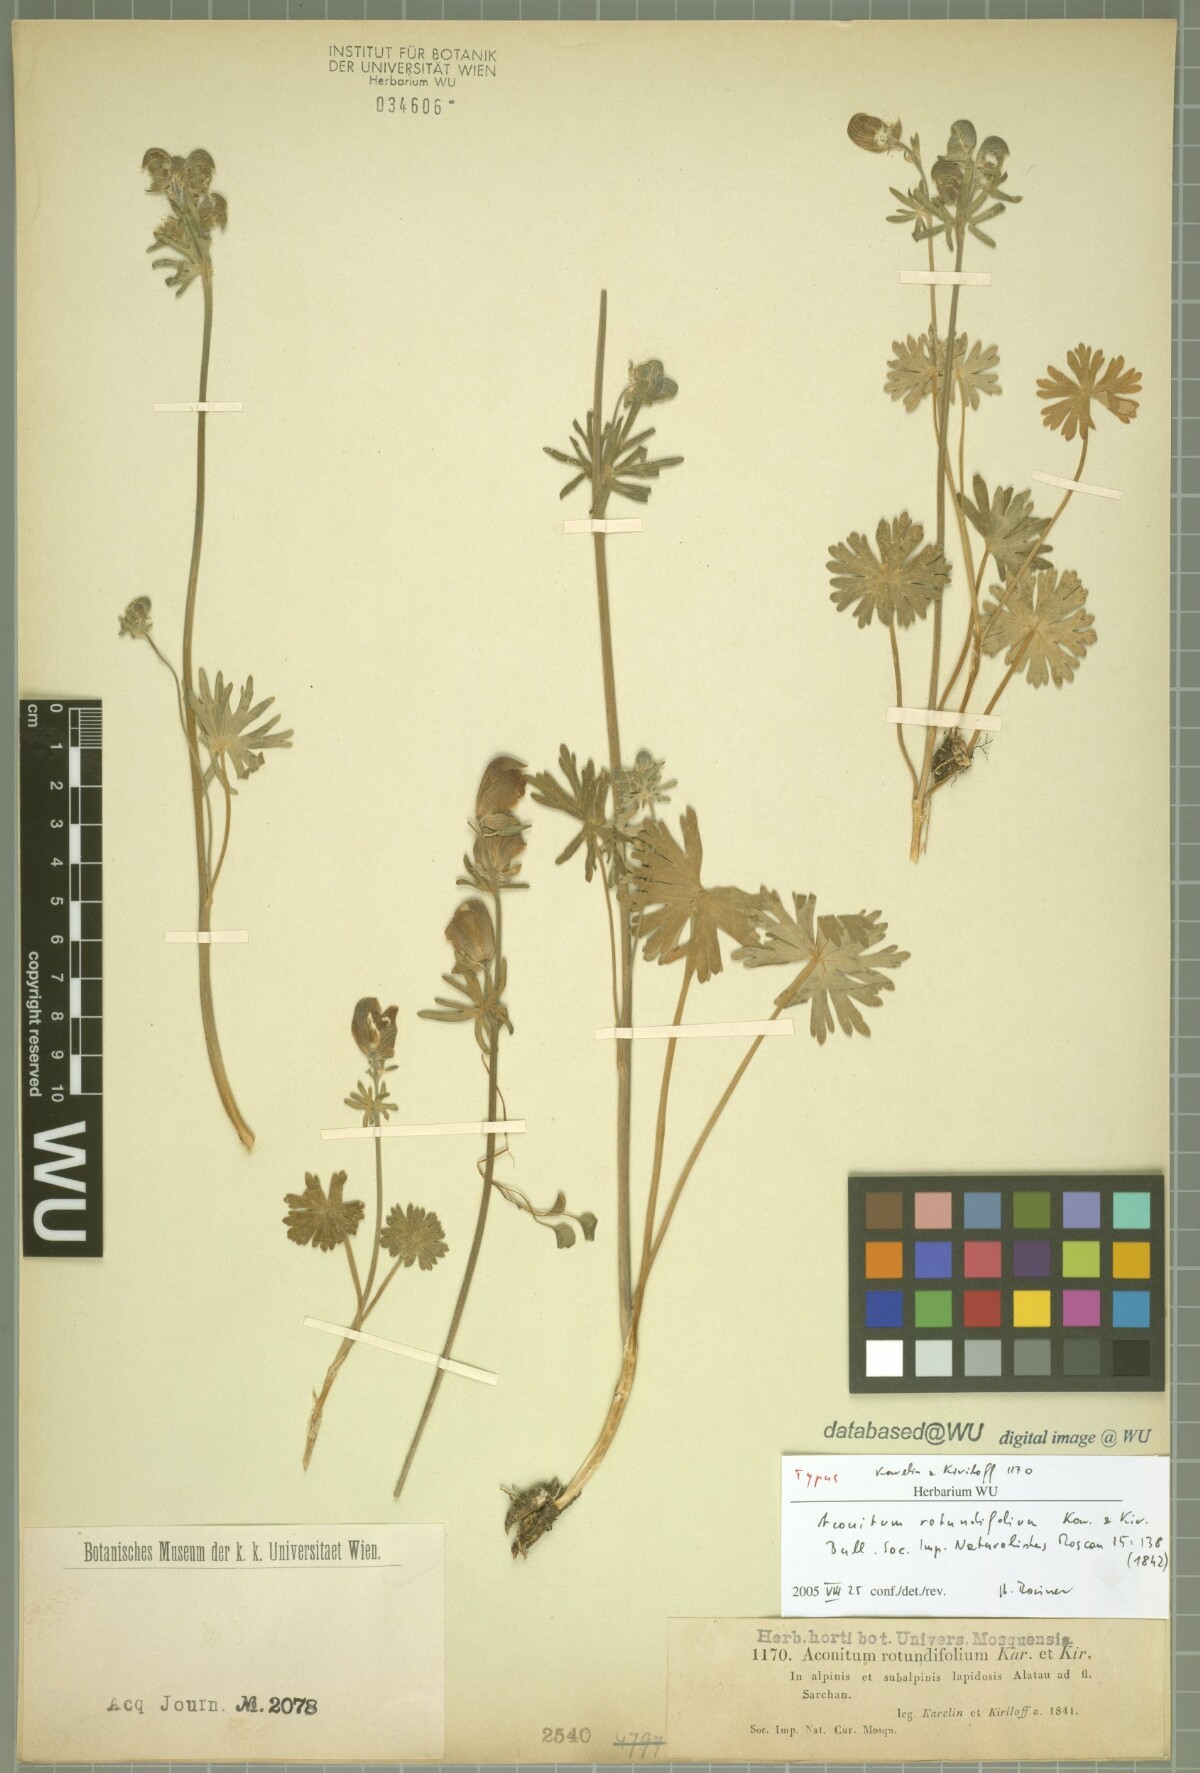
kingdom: Plantae
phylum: Tracheophyta
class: Magnoliopsida
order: Ranunculales
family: Ranunculaceae
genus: Aconitum
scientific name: Aconitum rotundifolium
